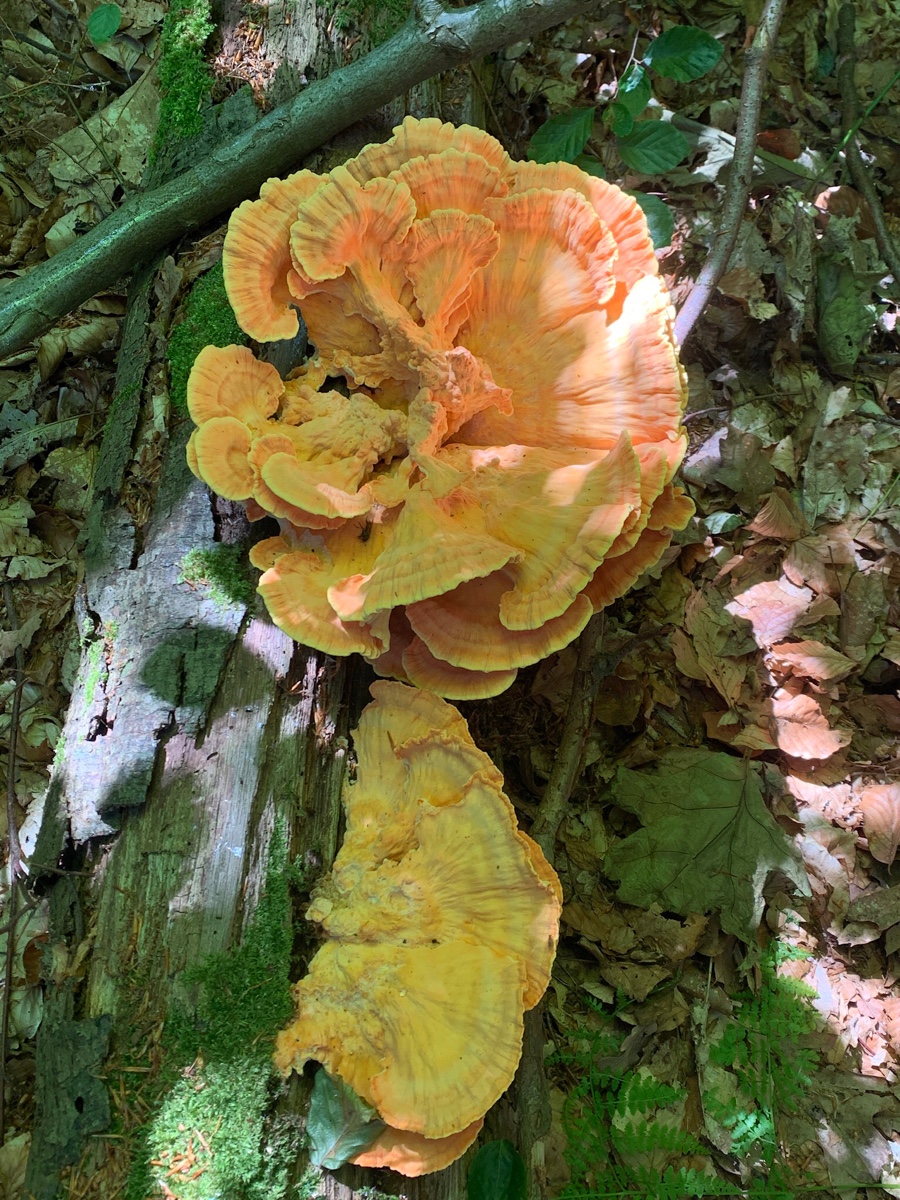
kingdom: Fungi
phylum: Basidiomycota
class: Agaricomycetes
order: Polyporales
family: Laetiporaceae
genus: Laetiporus
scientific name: Laetiporus sulphureus
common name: svovlporesvamp
